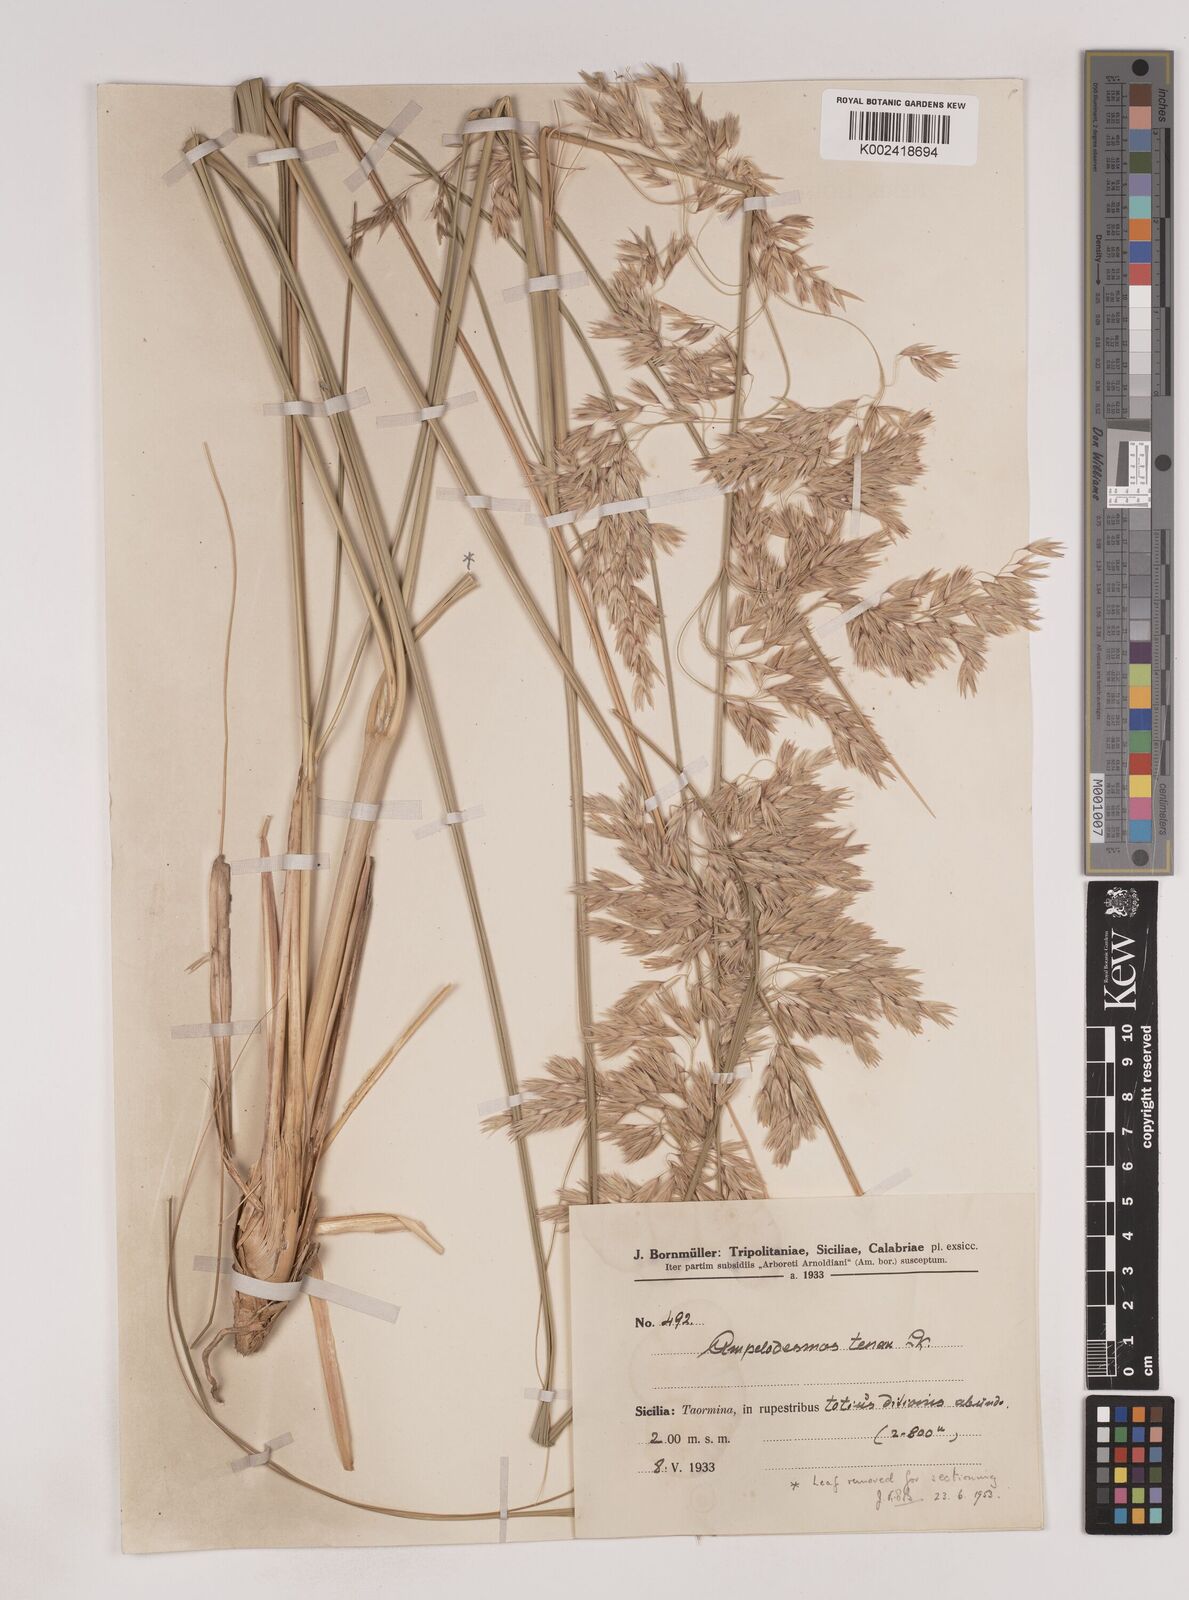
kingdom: Plantae
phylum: Tracheophyta
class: Liliopsida
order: Poales
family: Poaceae
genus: Ampelodesmos
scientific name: Ampelodesmos mauritanicus
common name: Mauritanian grass
